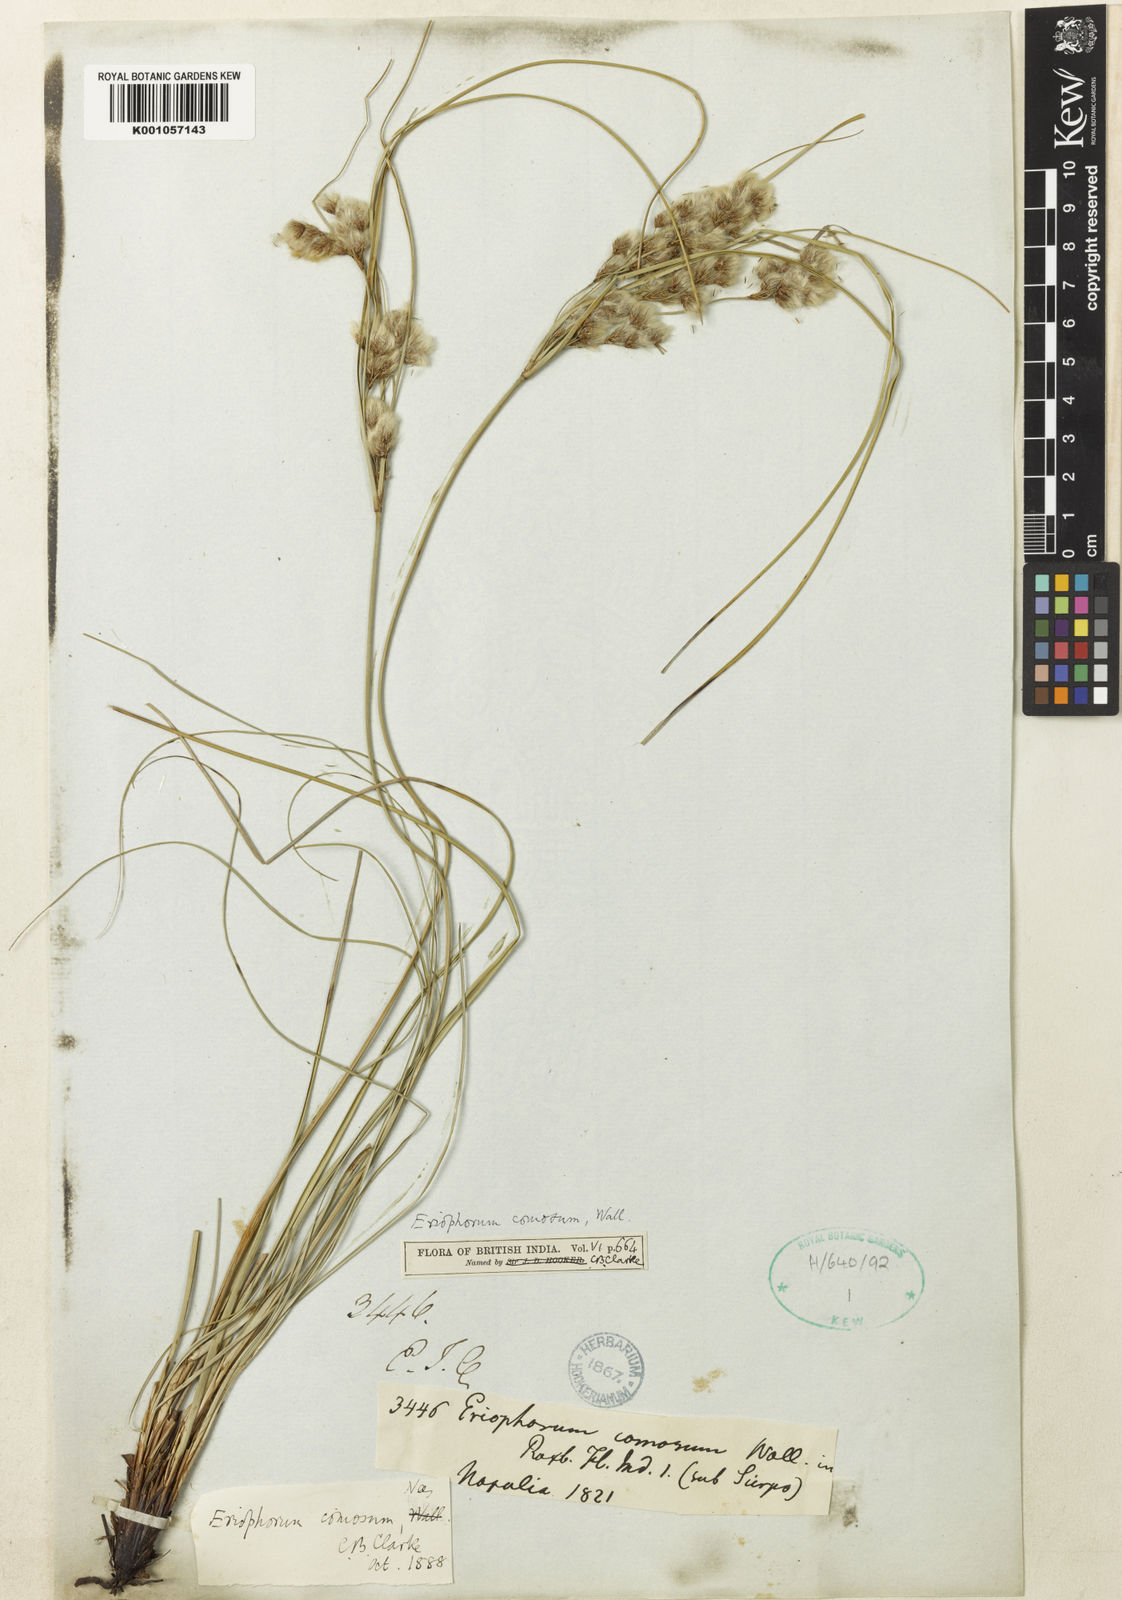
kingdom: Plantae
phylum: Tracheophyta
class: Liliopsida
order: Poales
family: Cyperaceae
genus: Erioscirpus
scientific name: Erioscirpus comosus
